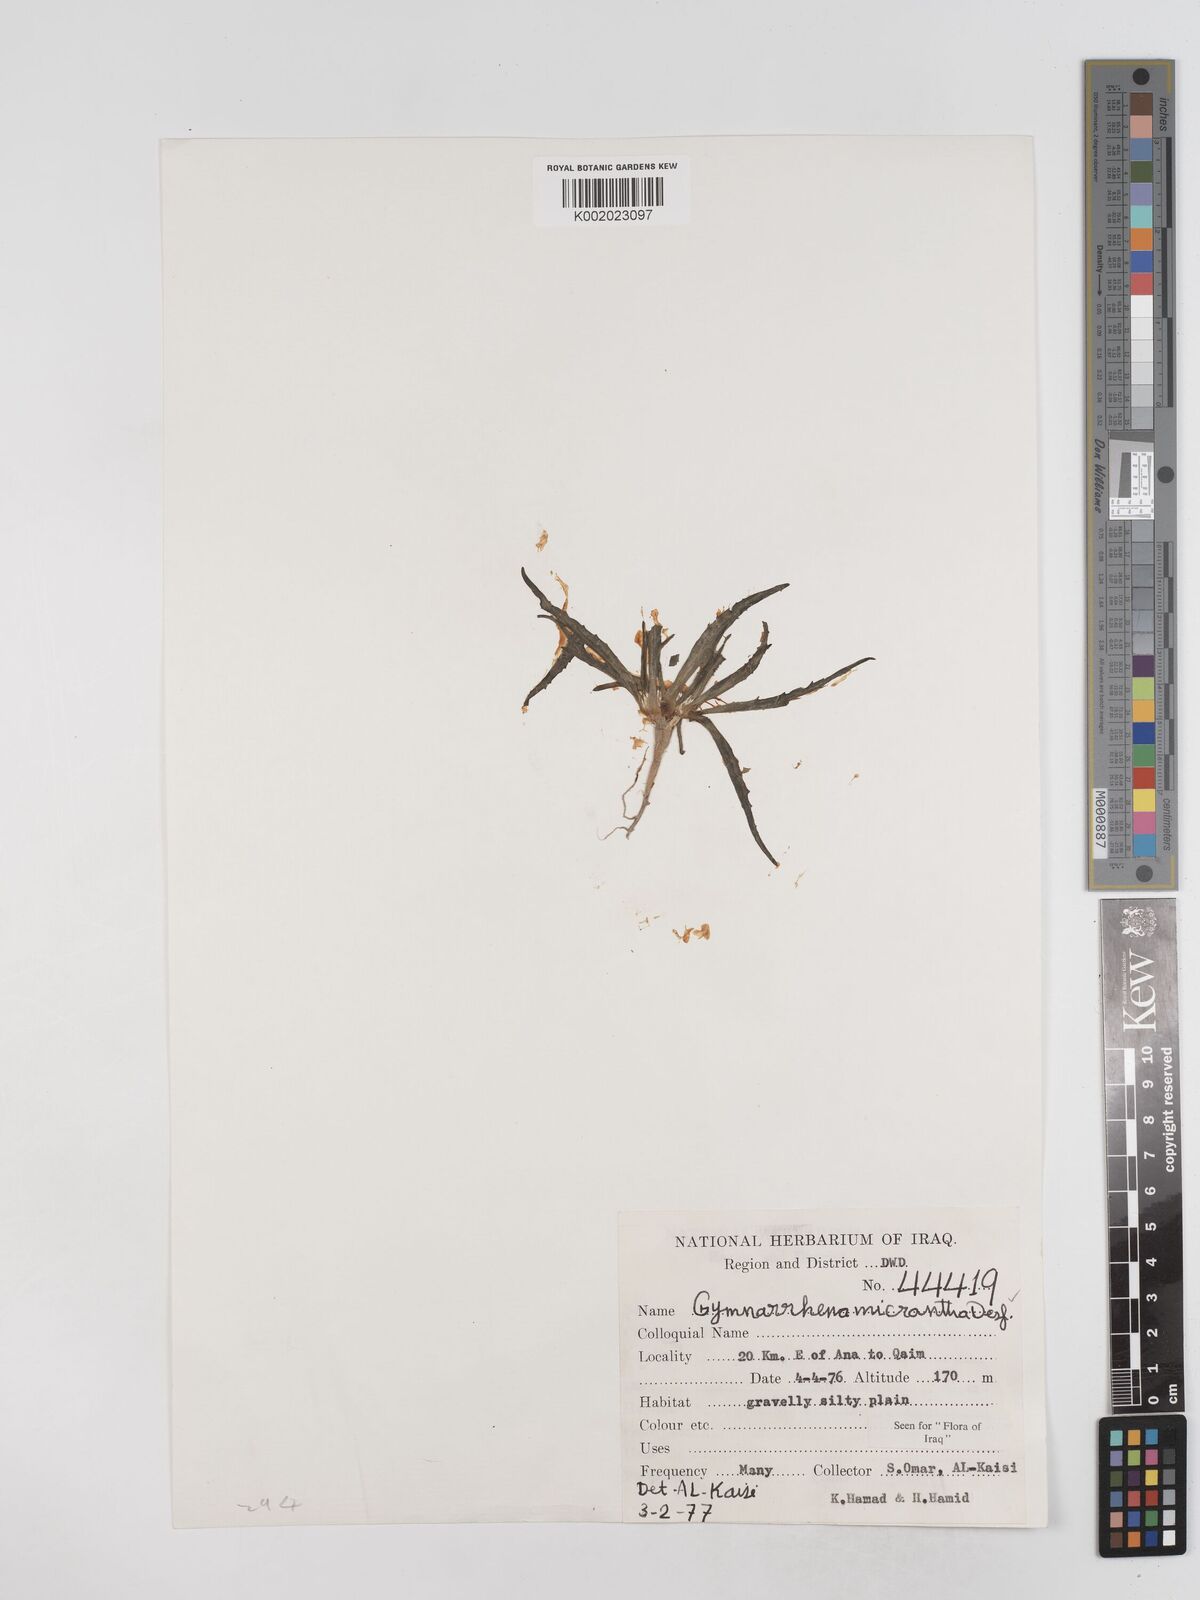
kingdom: Plantae
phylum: Tracheophyta
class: Magnoliopsida
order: Asterales
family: Asteraceae
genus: Gymnarrhena
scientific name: Gymnarrhena micrantha
